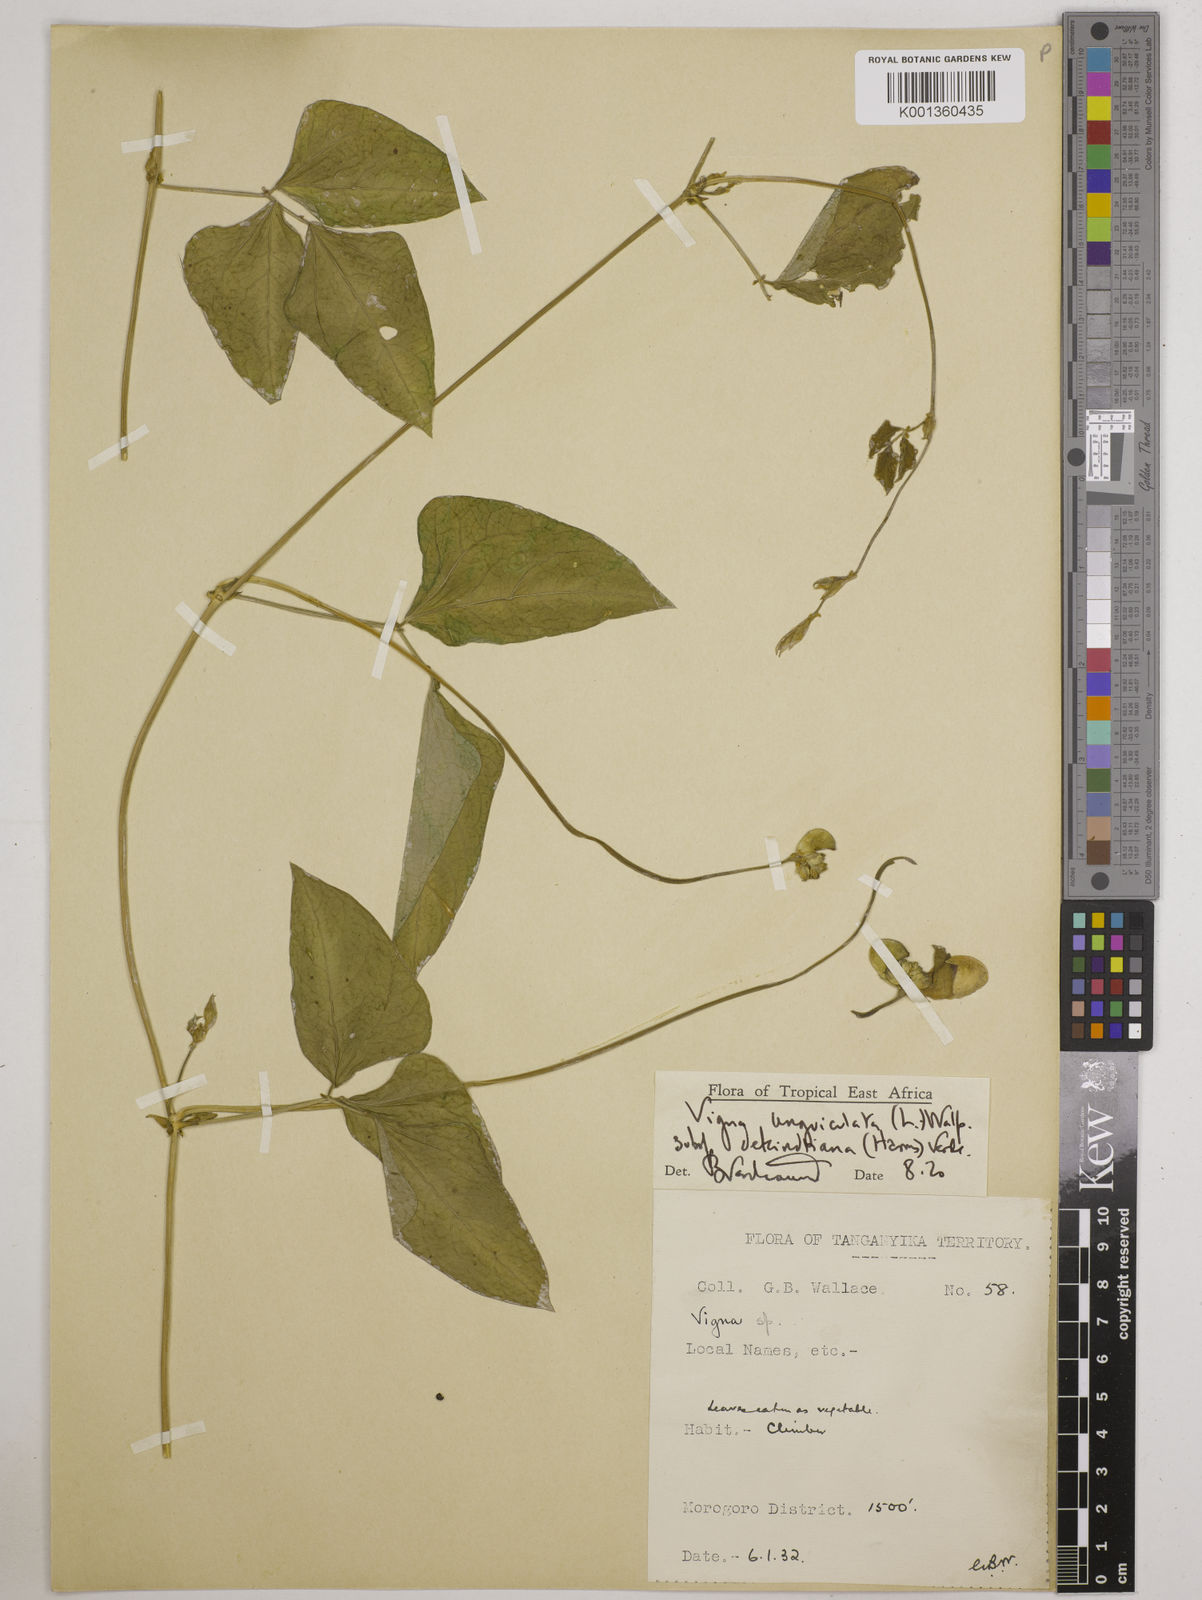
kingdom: Plantae
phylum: Tracheophyta
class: Magnoliopsida
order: Fabales
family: Fabaceae
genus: Vigna
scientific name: Vigna
